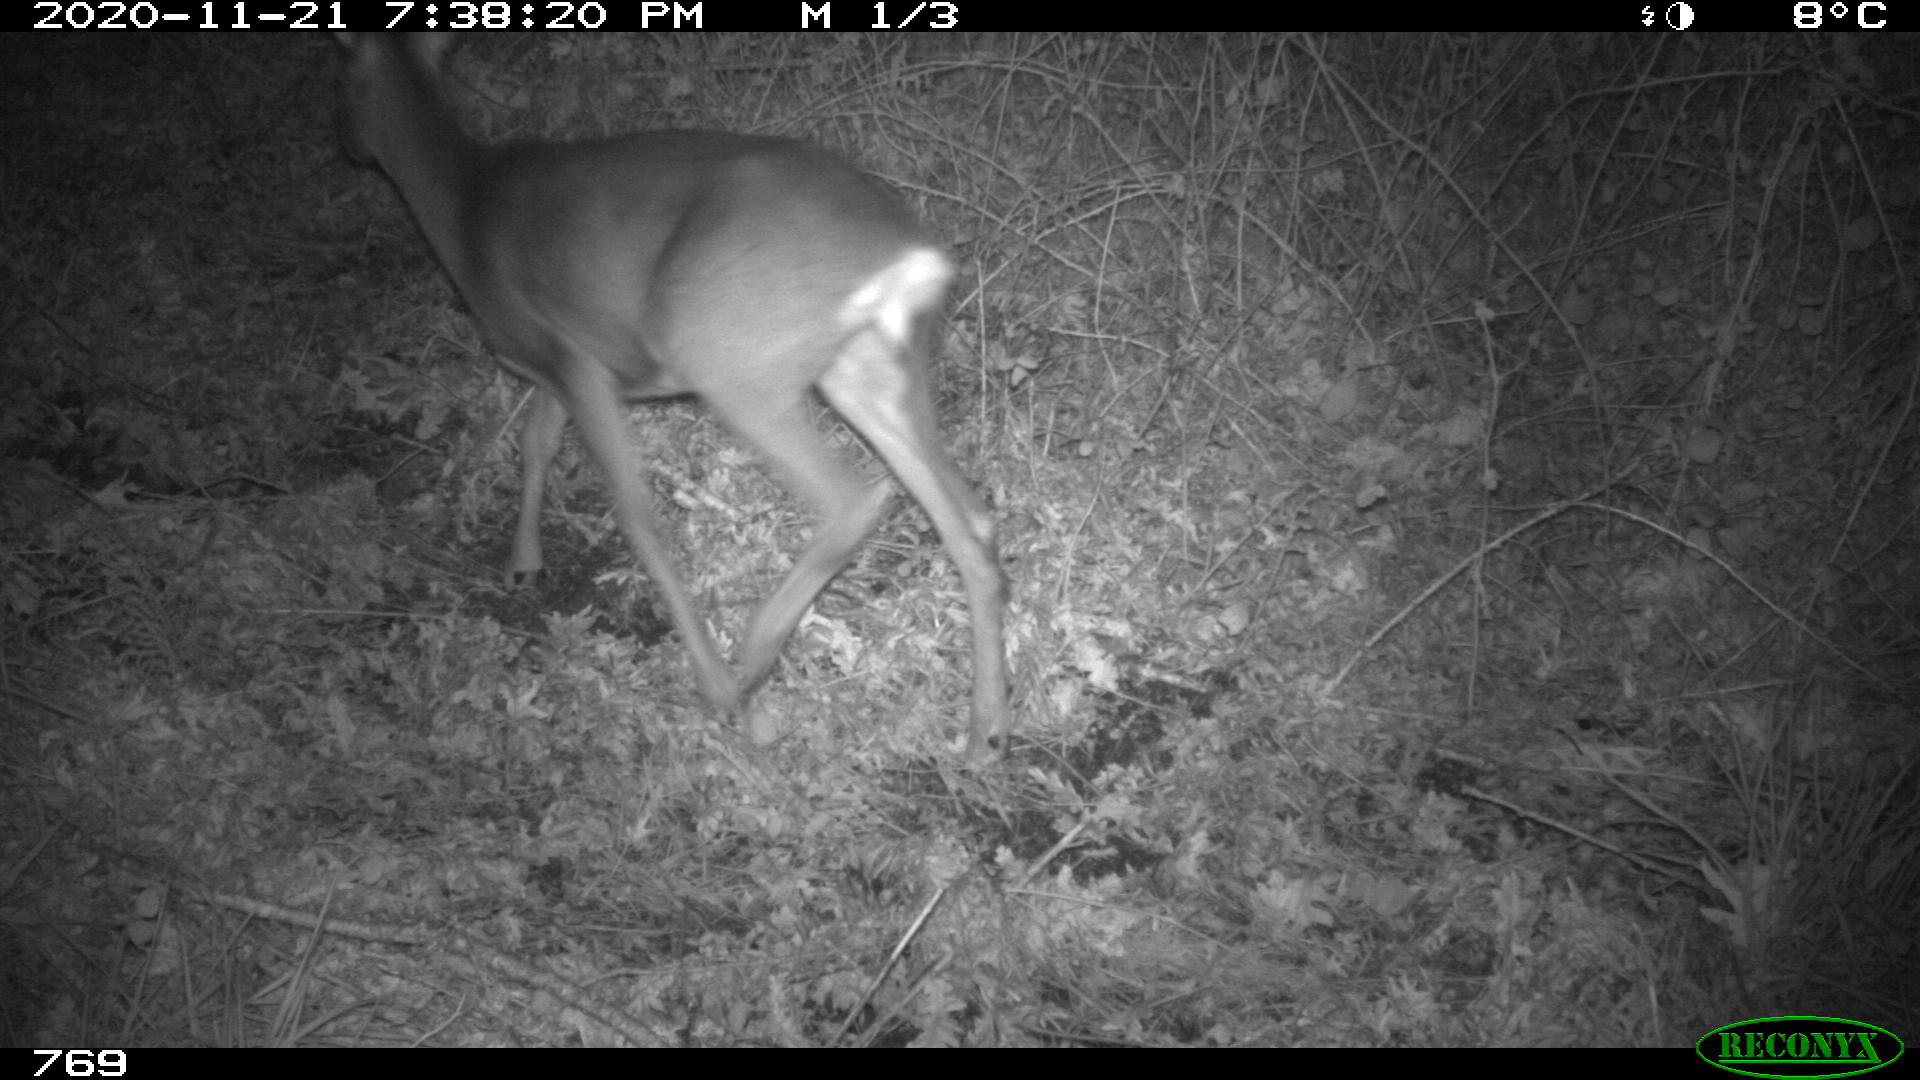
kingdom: Animalia
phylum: Chordata
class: Mammalia
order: Artiodactyla
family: Cervidae
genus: Capreolus
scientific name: Capreolus capreolus
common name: Western roe deer
